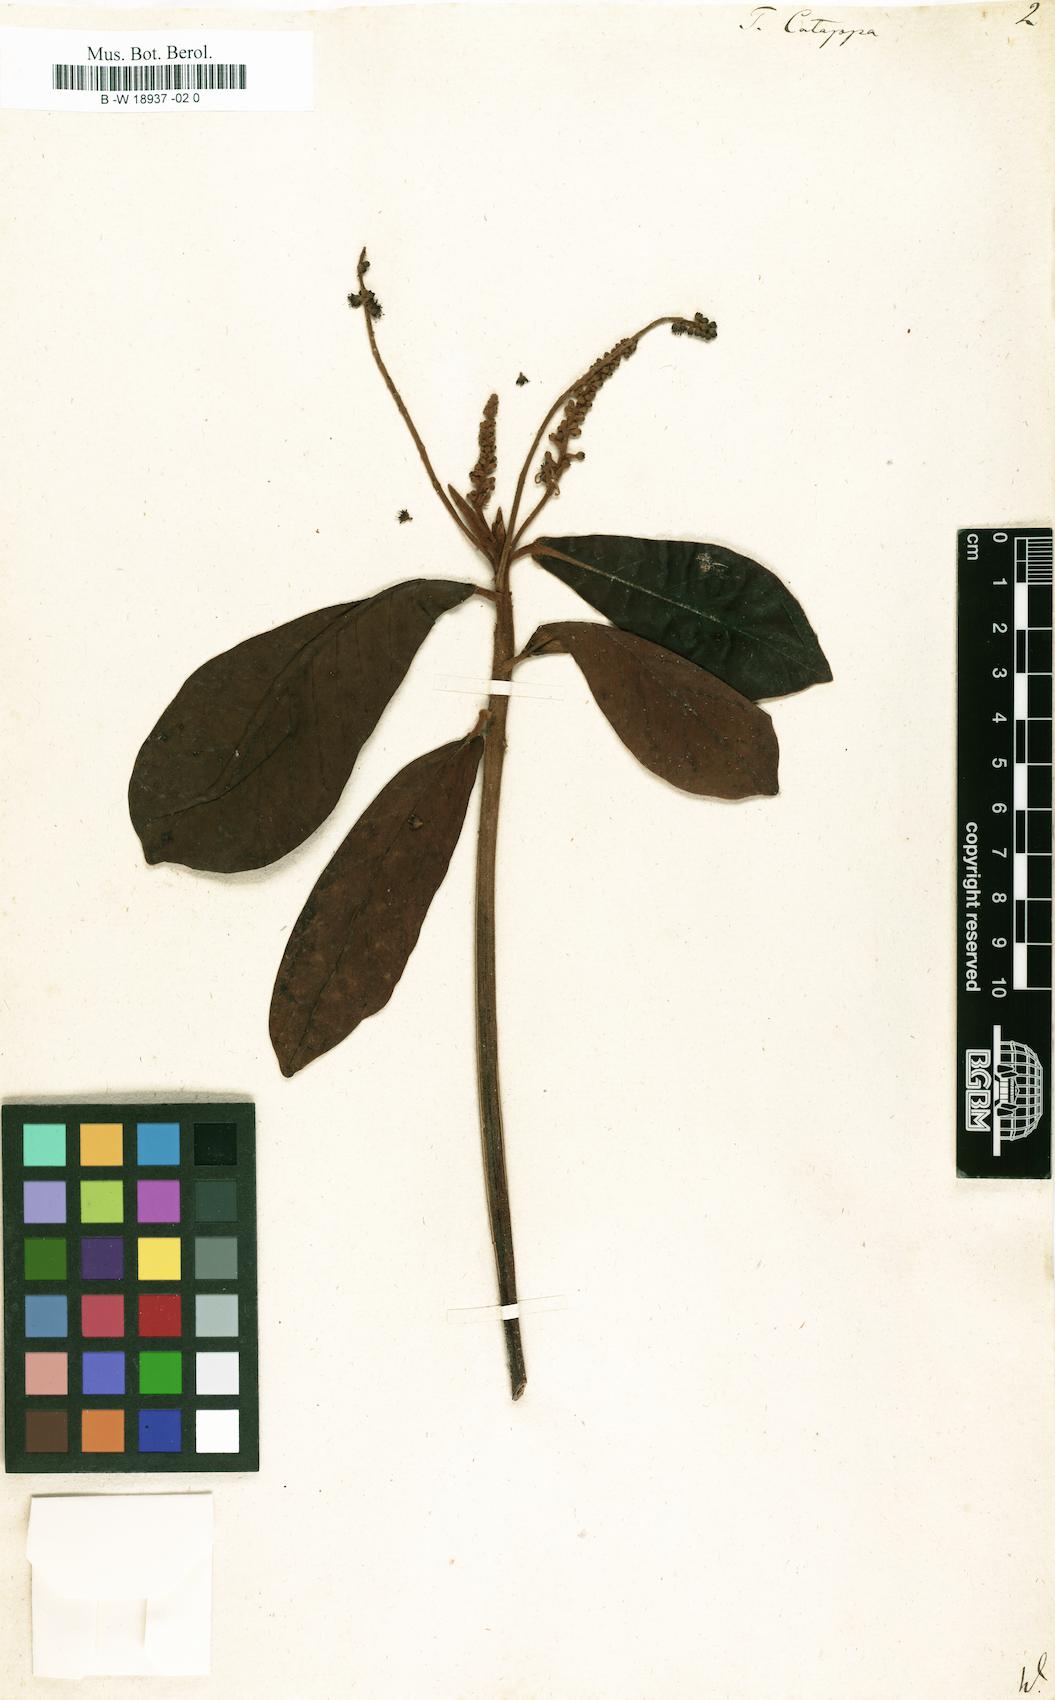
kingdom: Plantae
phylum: Tracheophyta
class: Magnoliopsida
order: Myrtales
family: Combretaceae
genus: Terminalia
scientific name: Terminalia catappa
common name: Tropical almond
